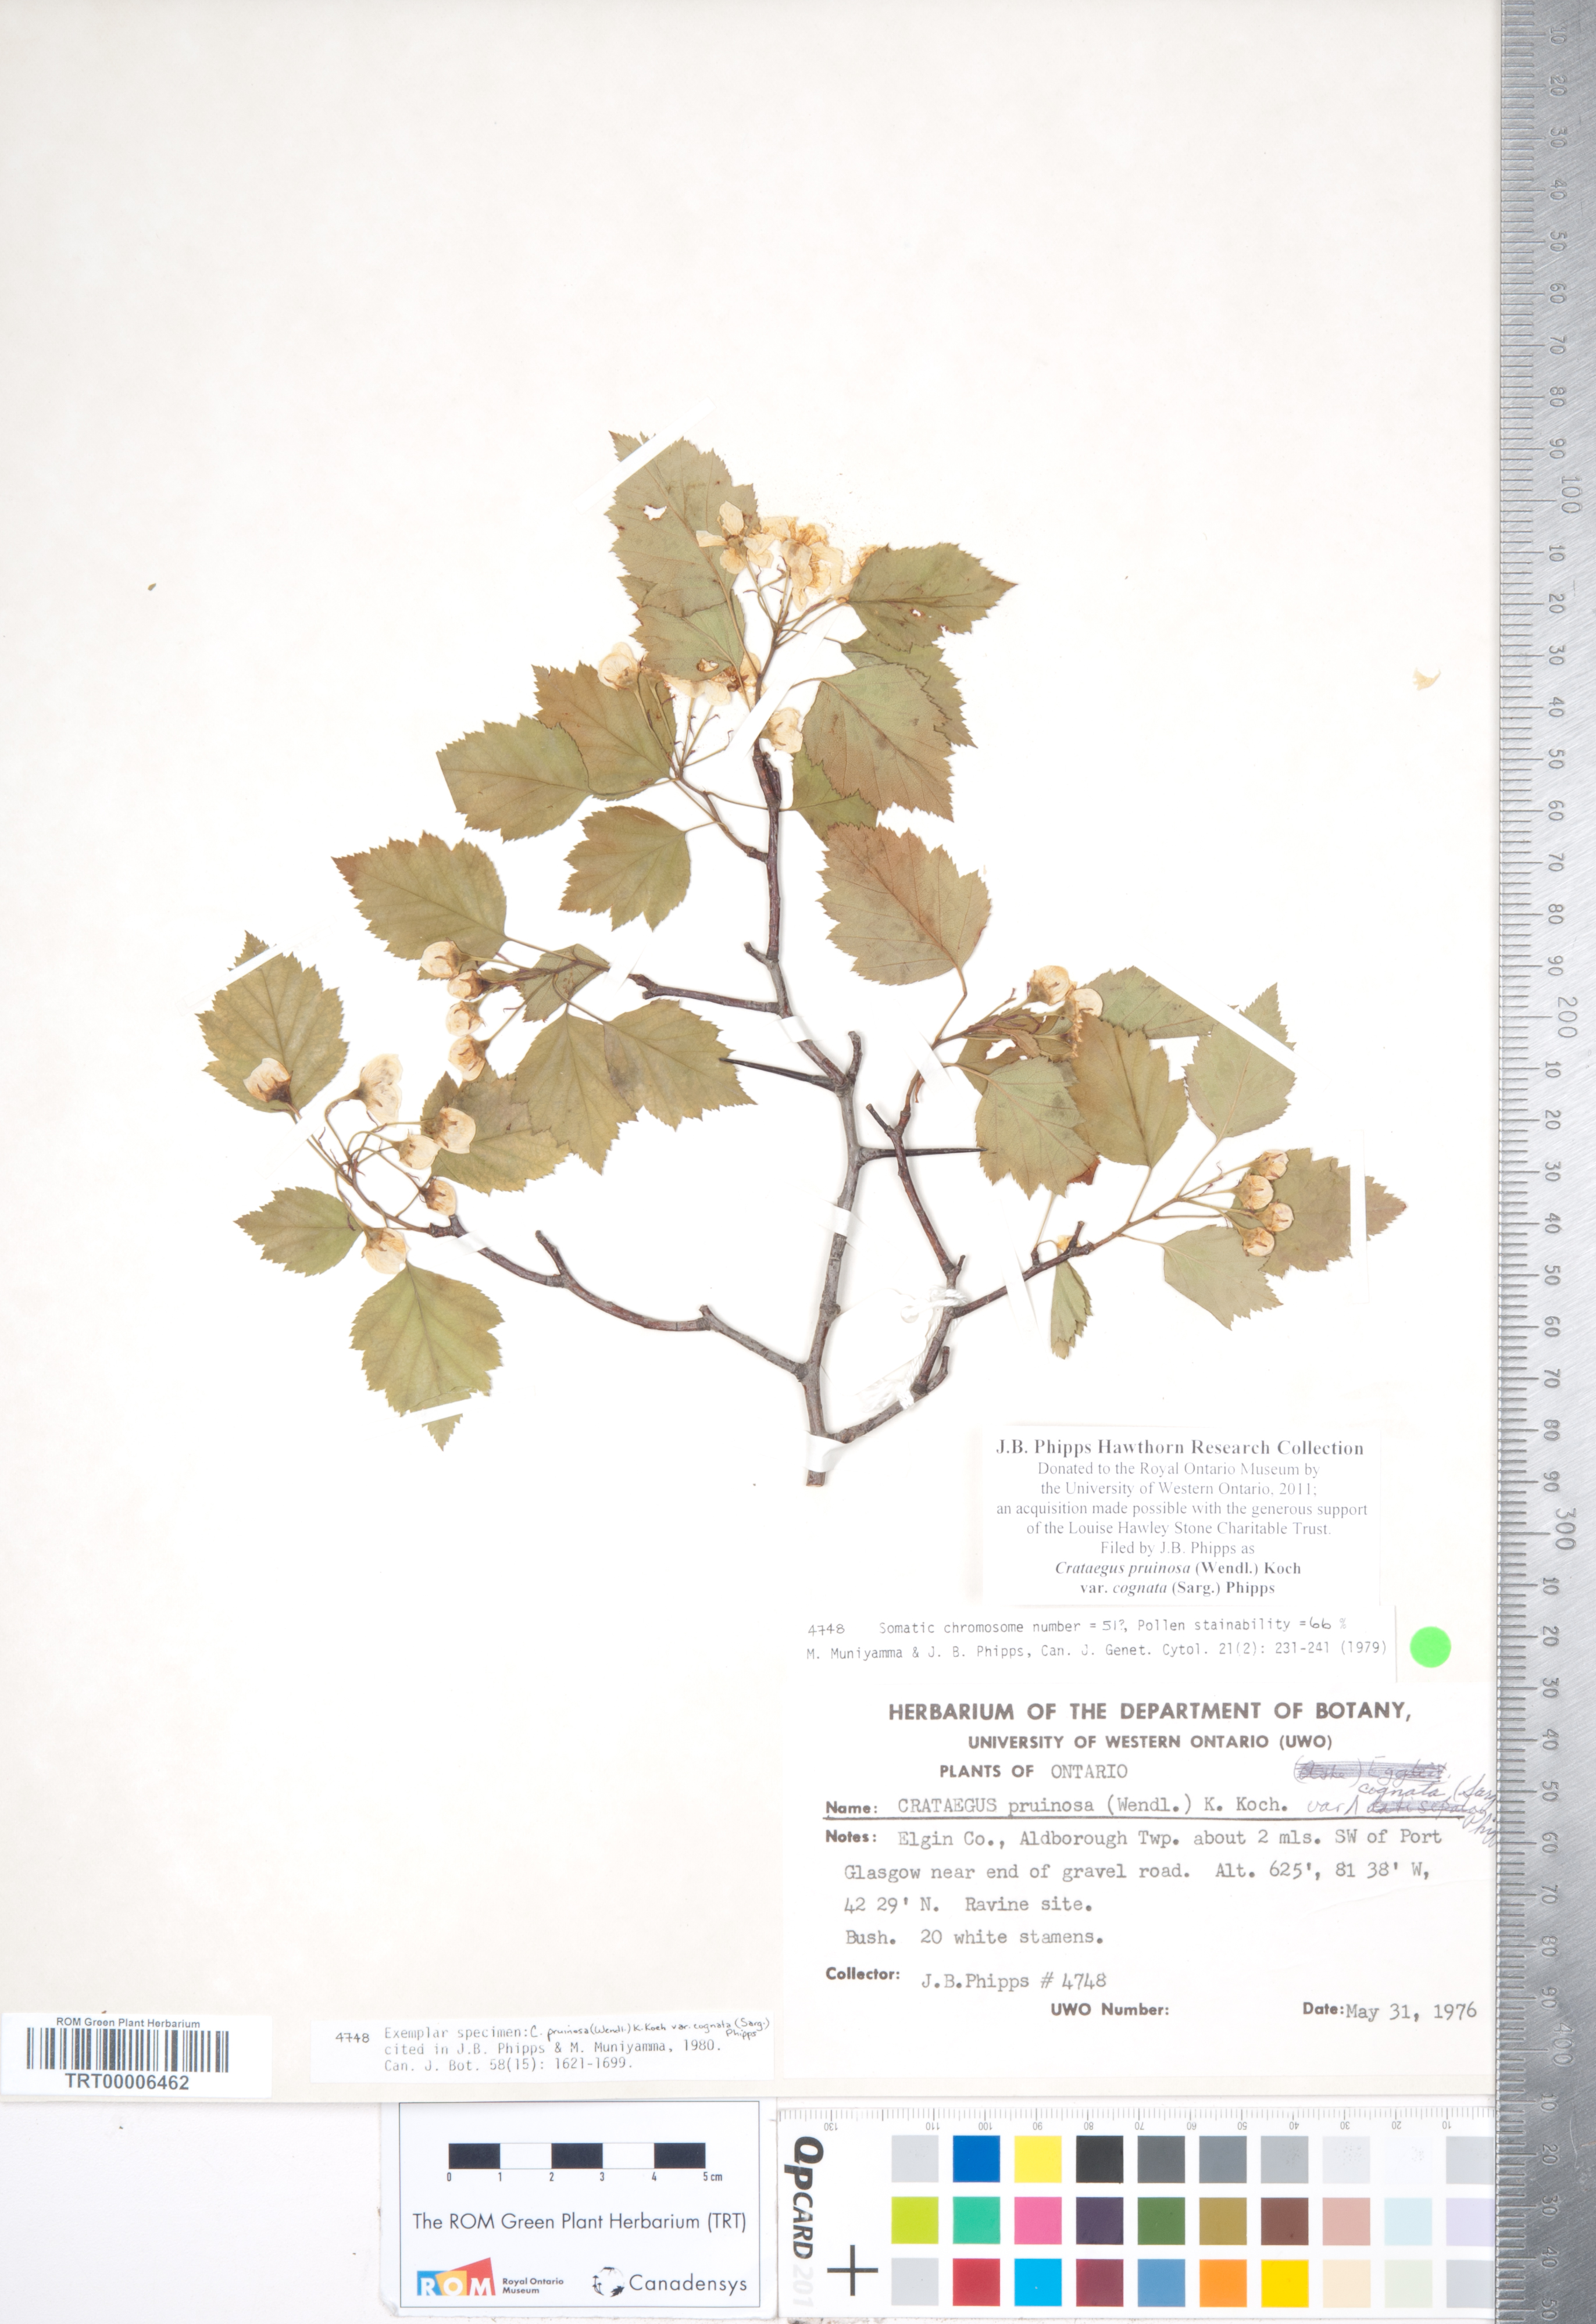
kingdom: Plantae
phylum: Tracheophyta
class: Magnoliopsida
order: Rosales
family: Rosaceae
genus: Crataegus
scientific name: Crataegus
